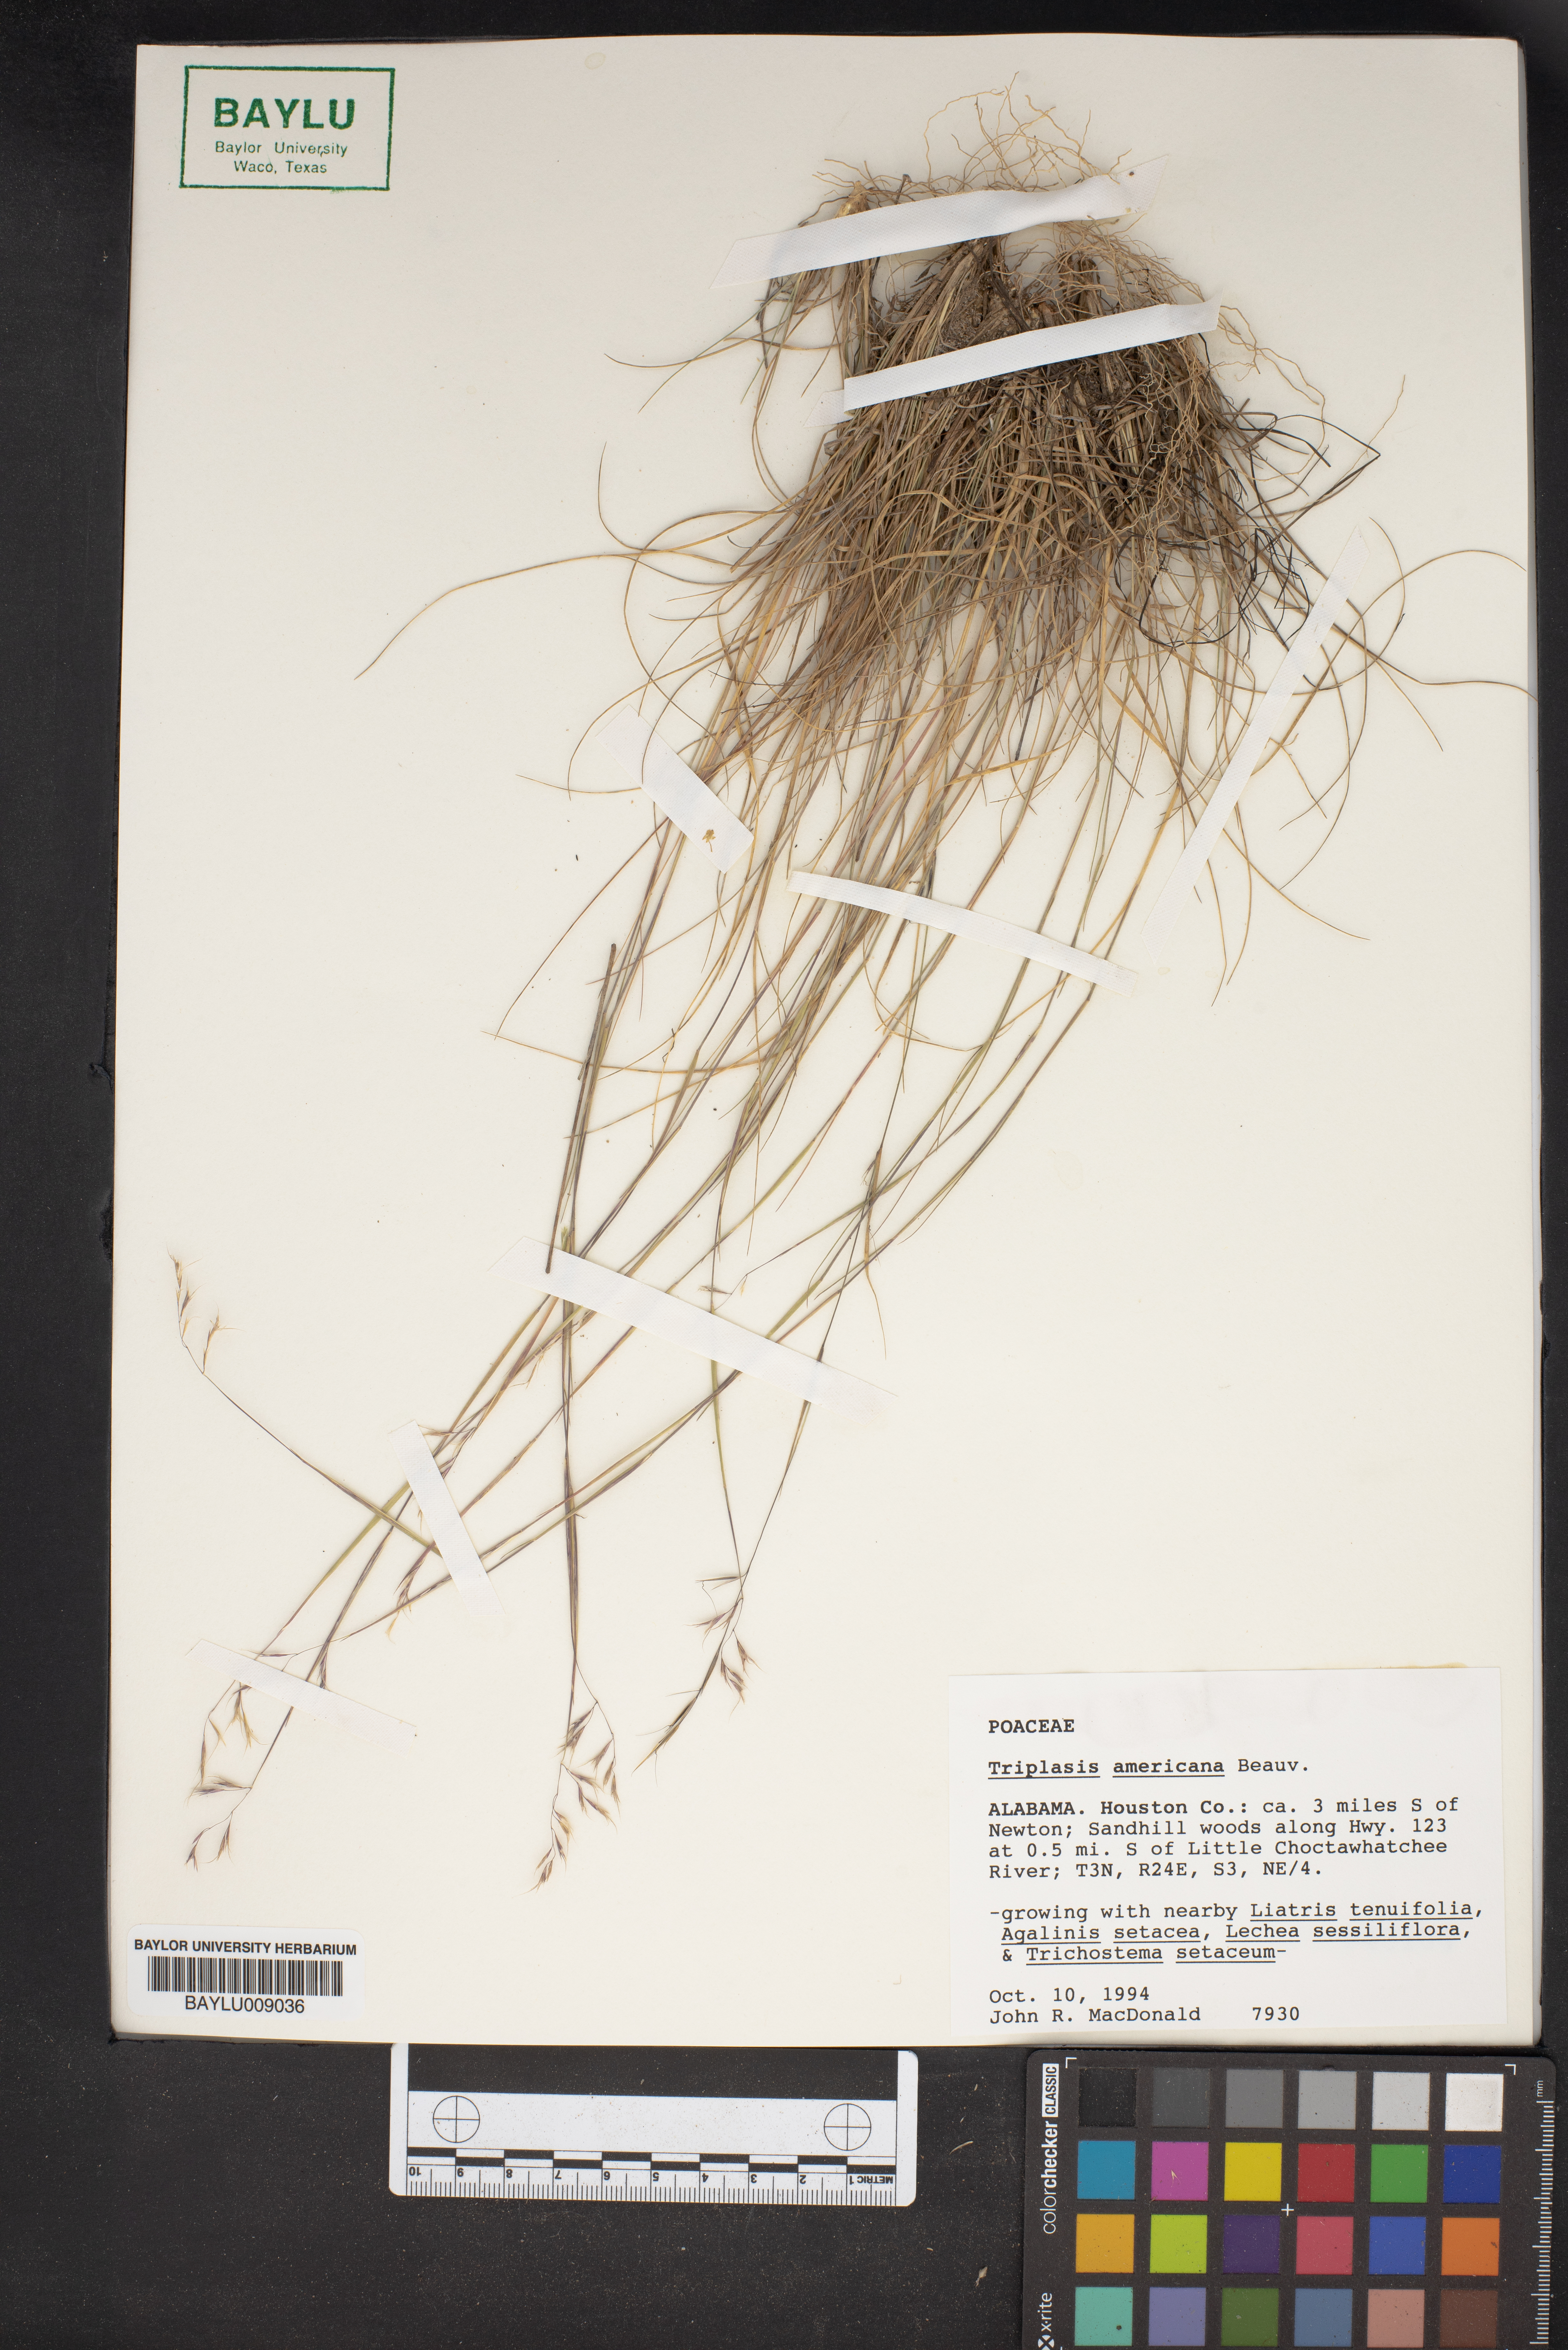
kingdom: Plantae
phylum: Tracheophyta
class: Liliopsida
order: Poales
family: Poaceae
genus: Triplasis
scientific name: Triplasis americana
